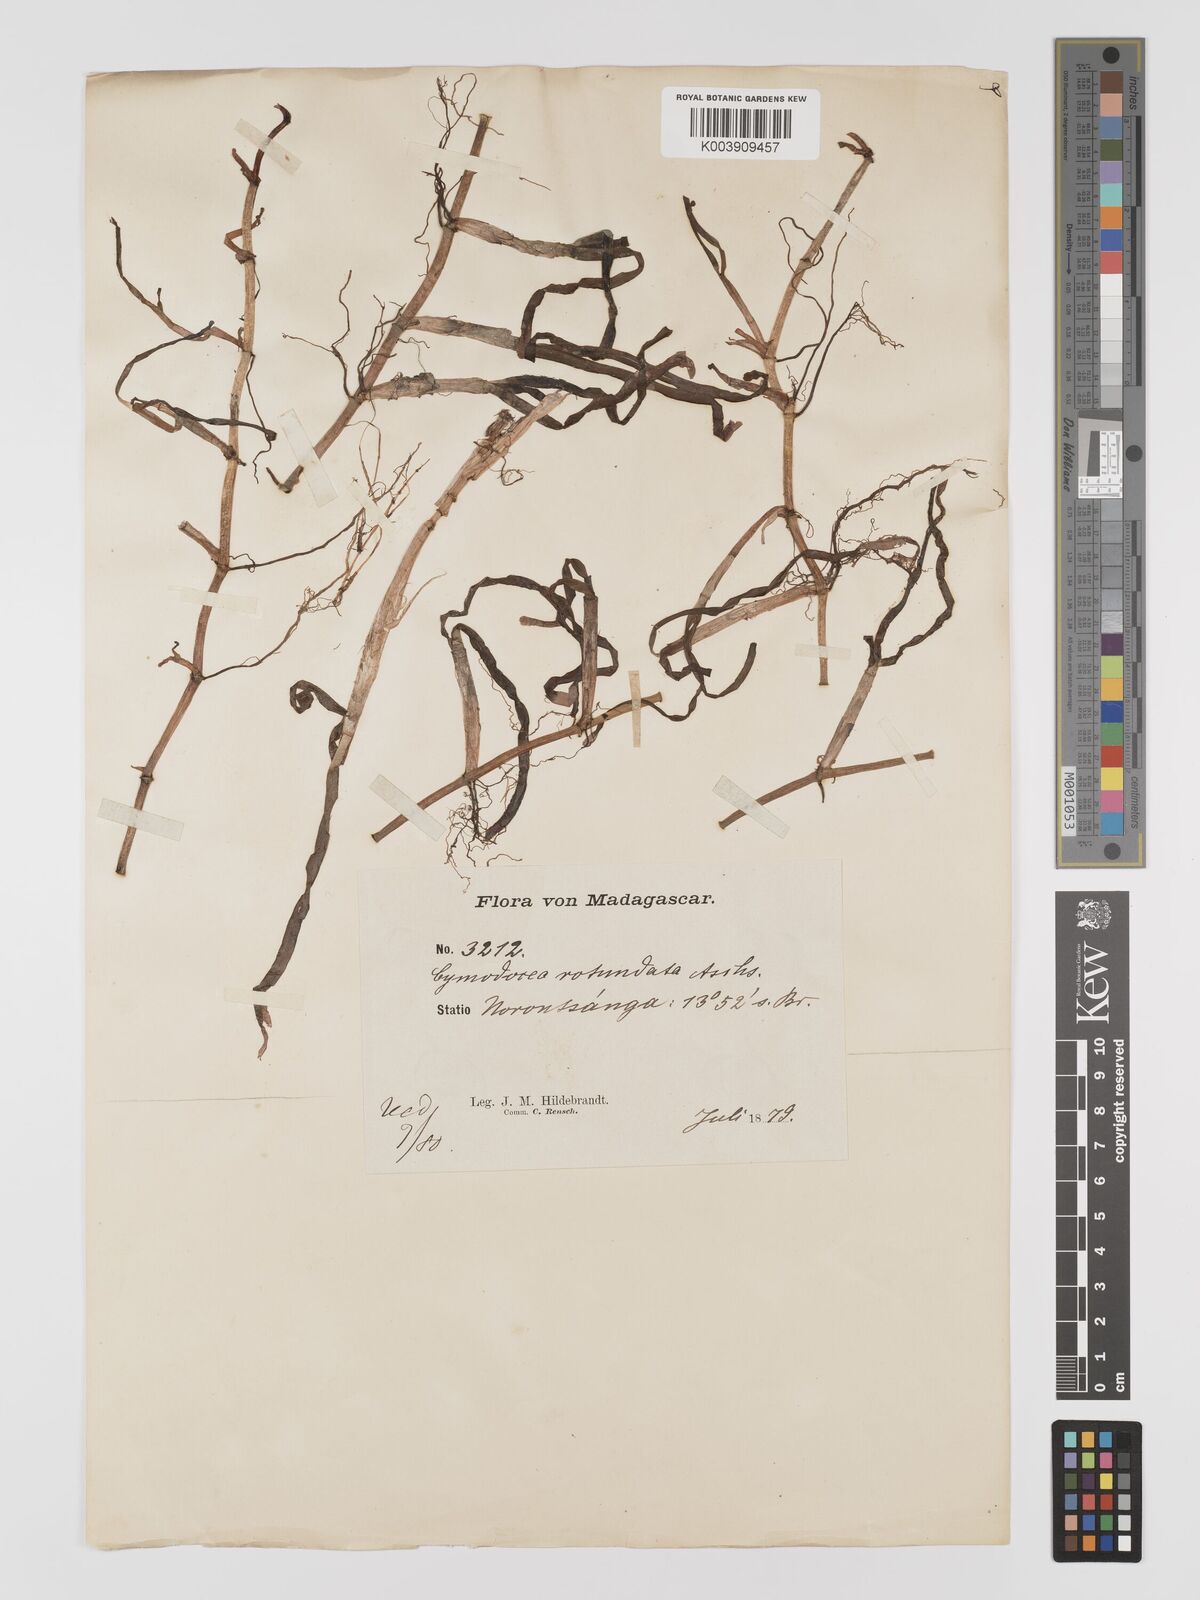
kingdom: Plantae
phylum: Tracheophyta
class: Liliopsida
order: Alismatales
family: Cymodoceaceae
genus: Cymodocea
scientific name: Cymodocea rotundata
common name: Species code: cr
